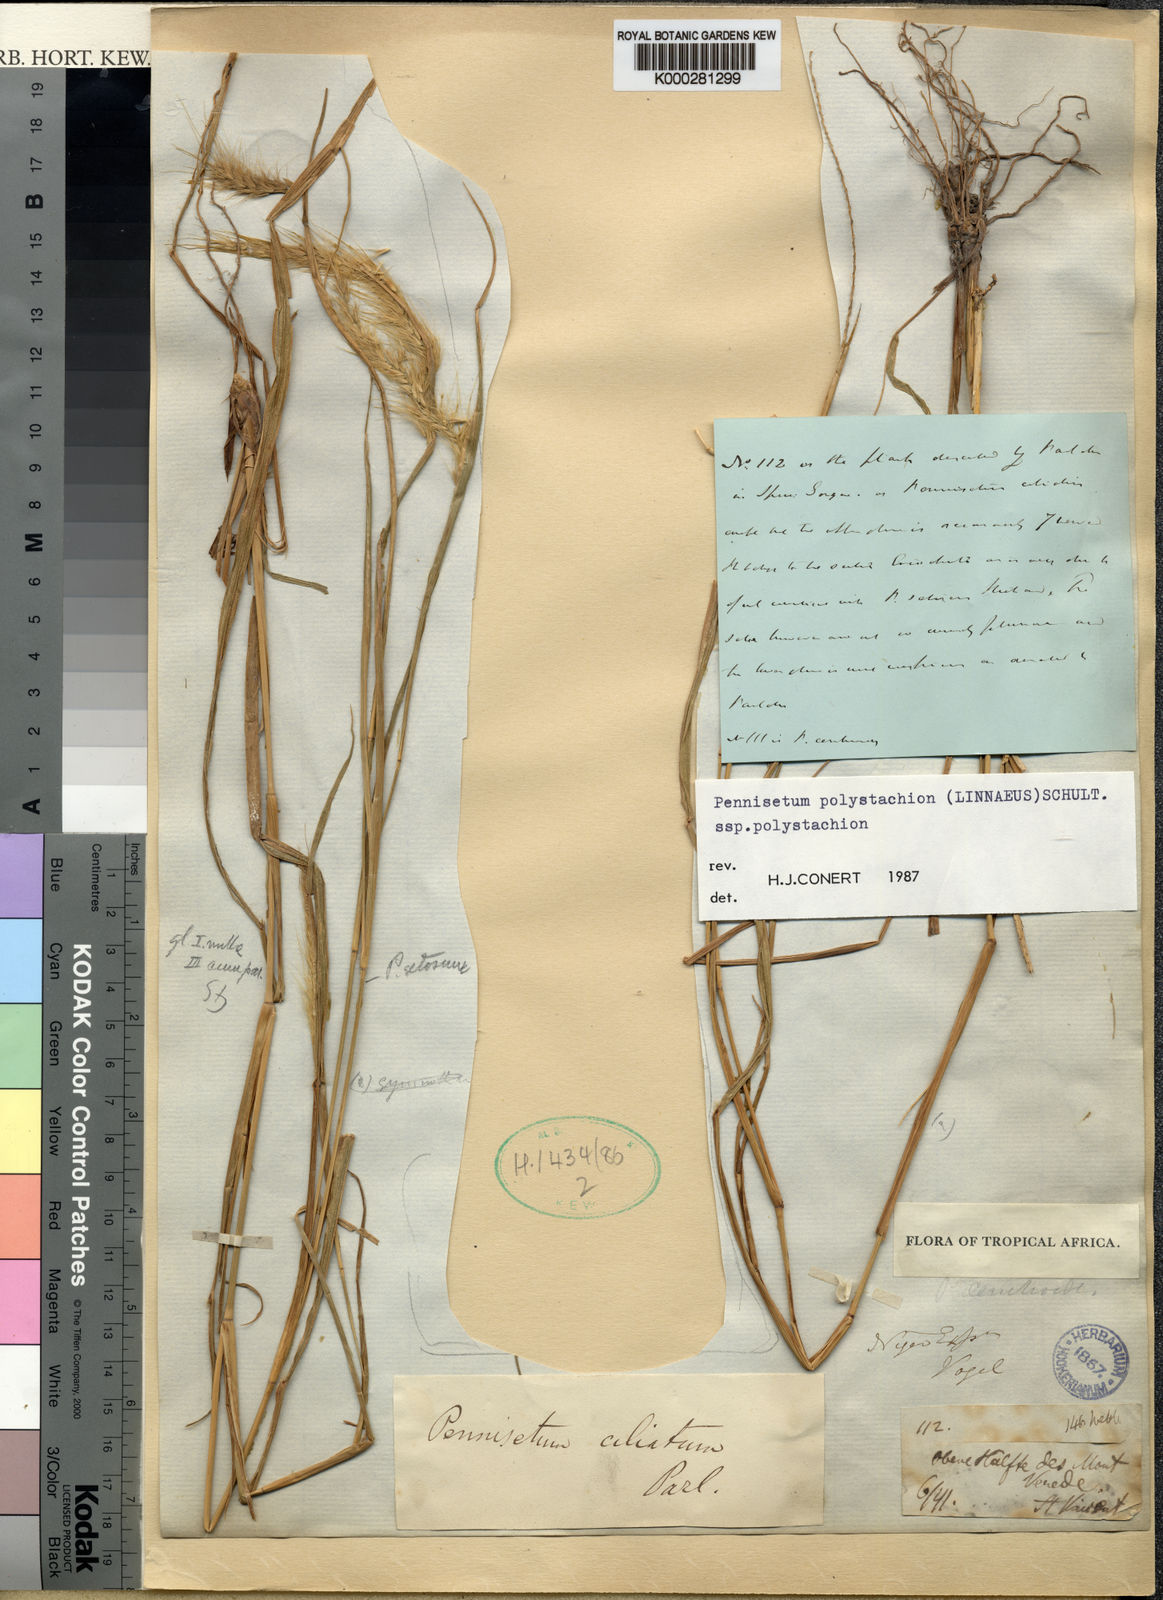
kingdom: Plantae
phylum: Tracheophyta
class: Liliopsida
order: Poales
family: Poaceae
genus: Setaria
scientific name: Setaria parviflora
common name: Knotroot bristle-grass
